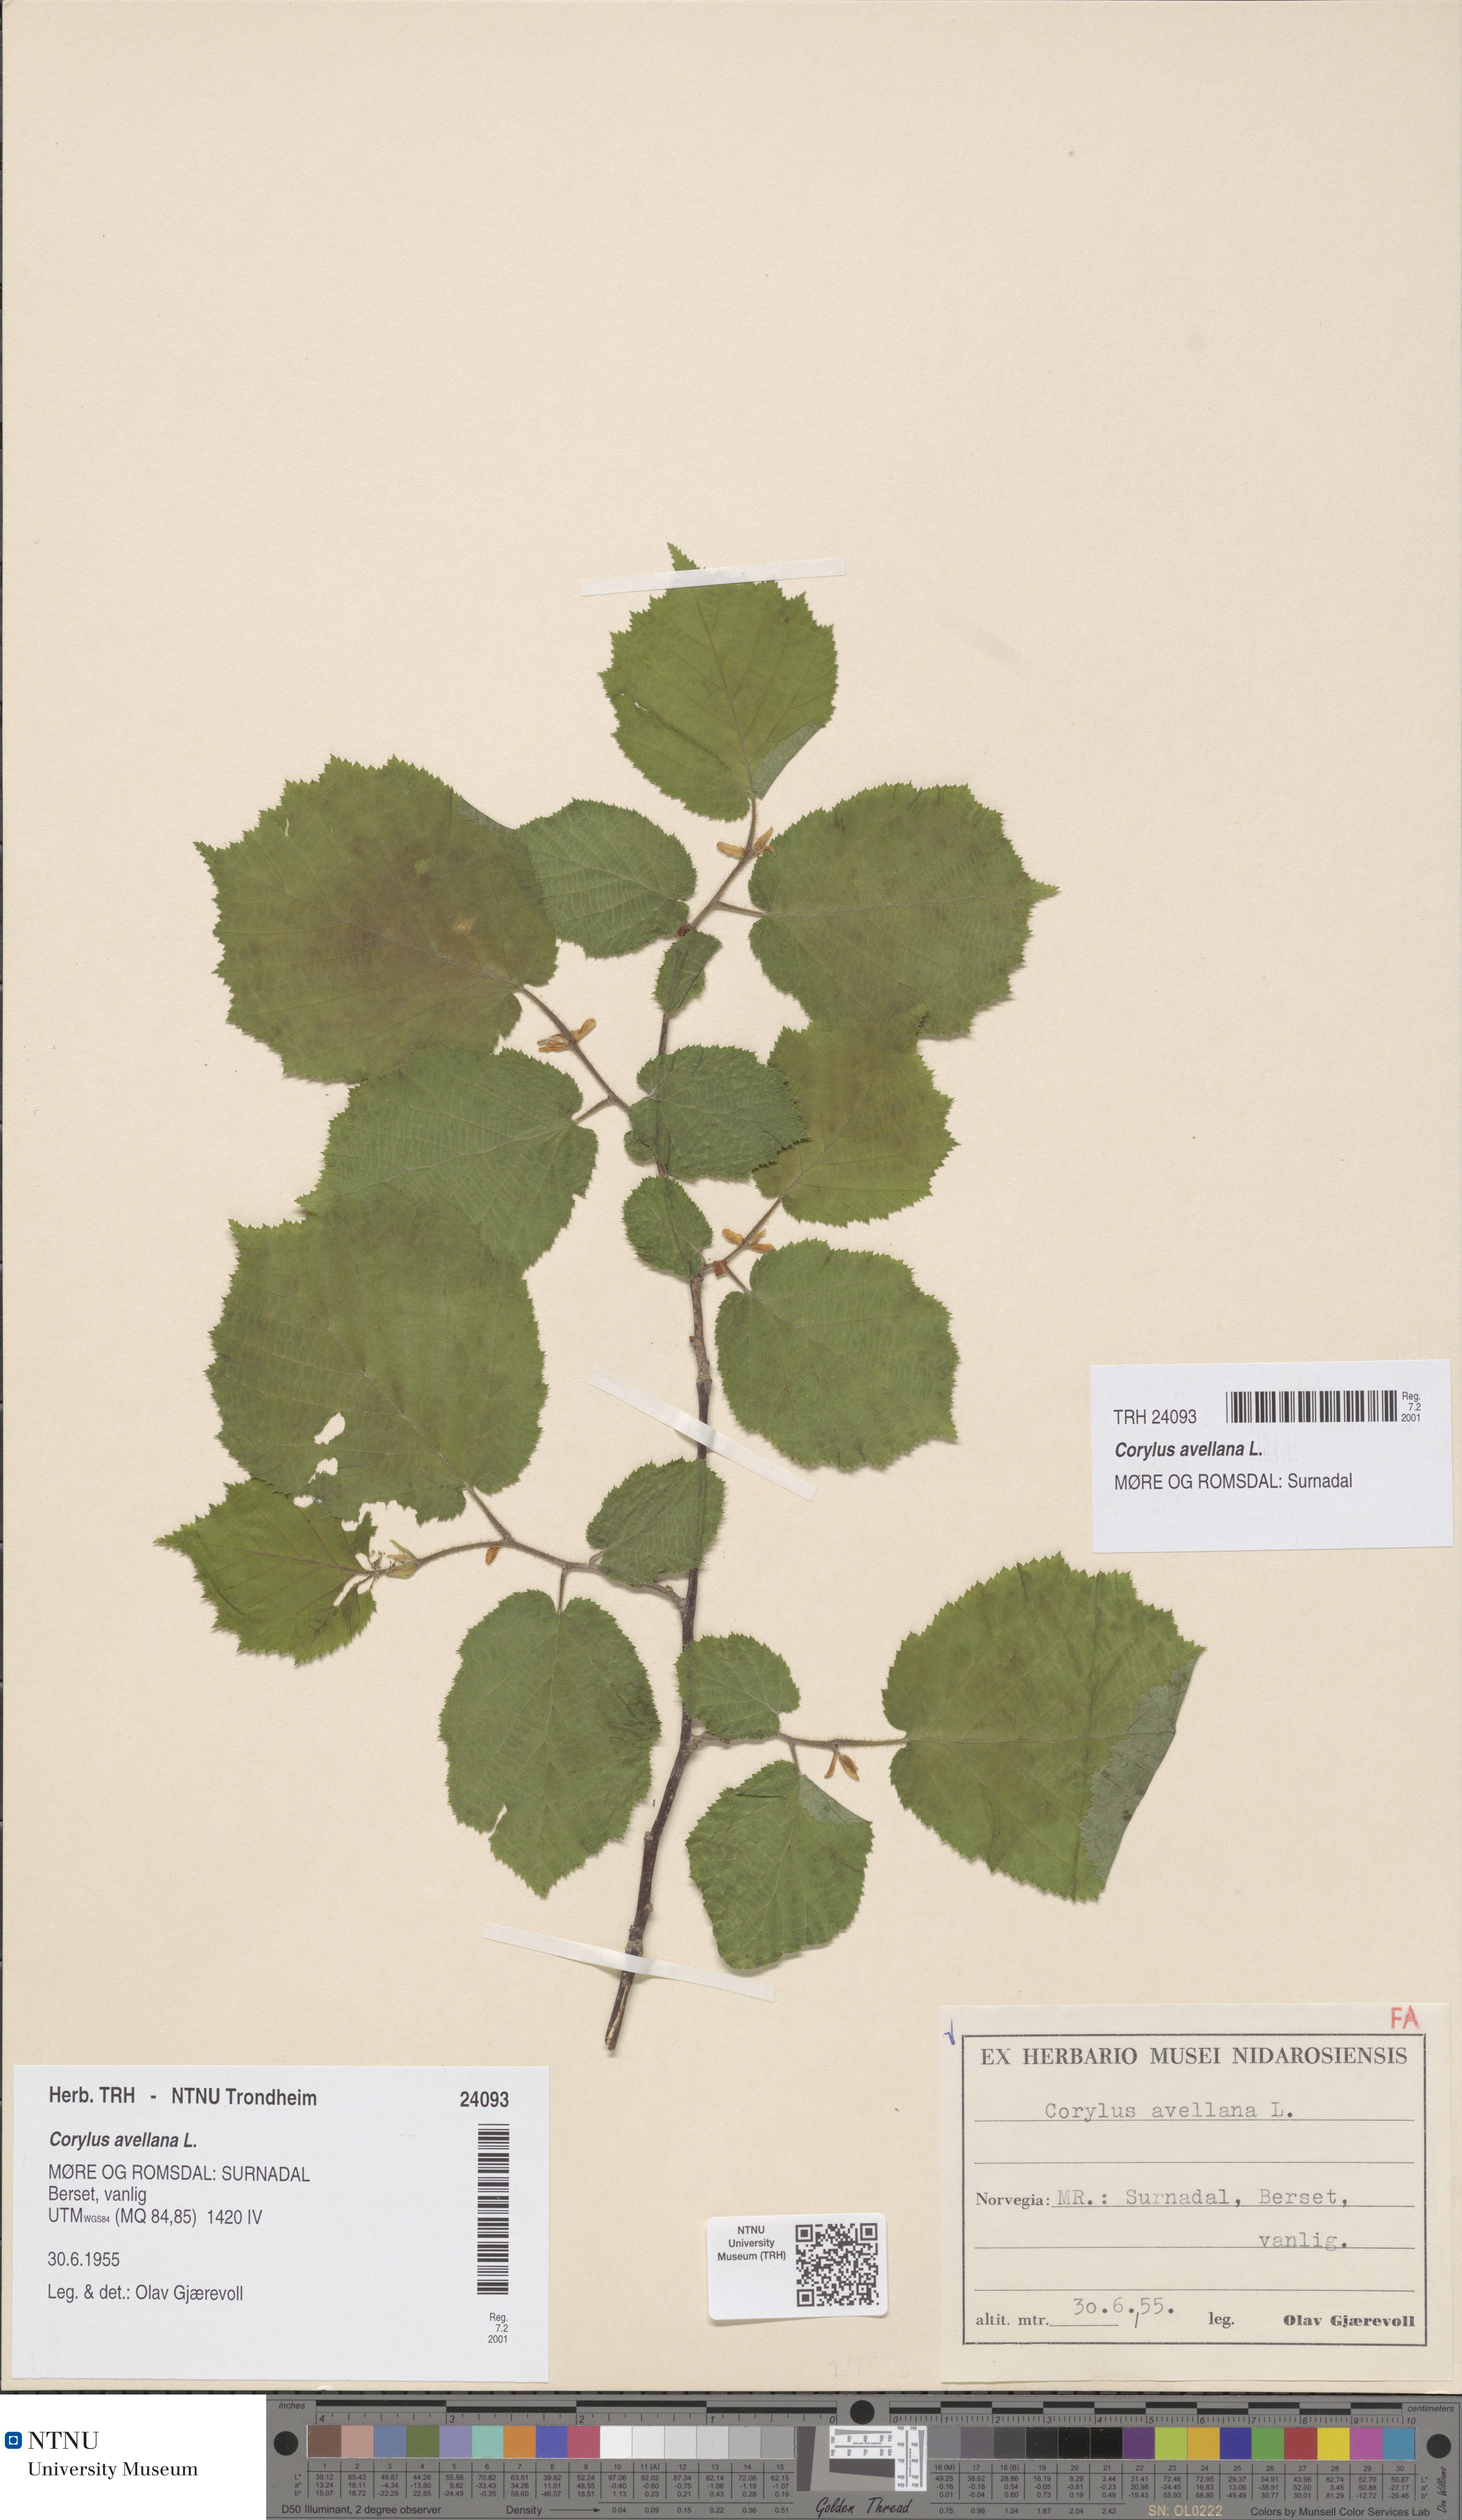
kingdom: Plantae
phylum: Tracheophyta
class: Magnoliopsida
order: Fagales
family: Betulaceae
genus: Corylus
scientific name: Corylus avellana
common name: European hazel
